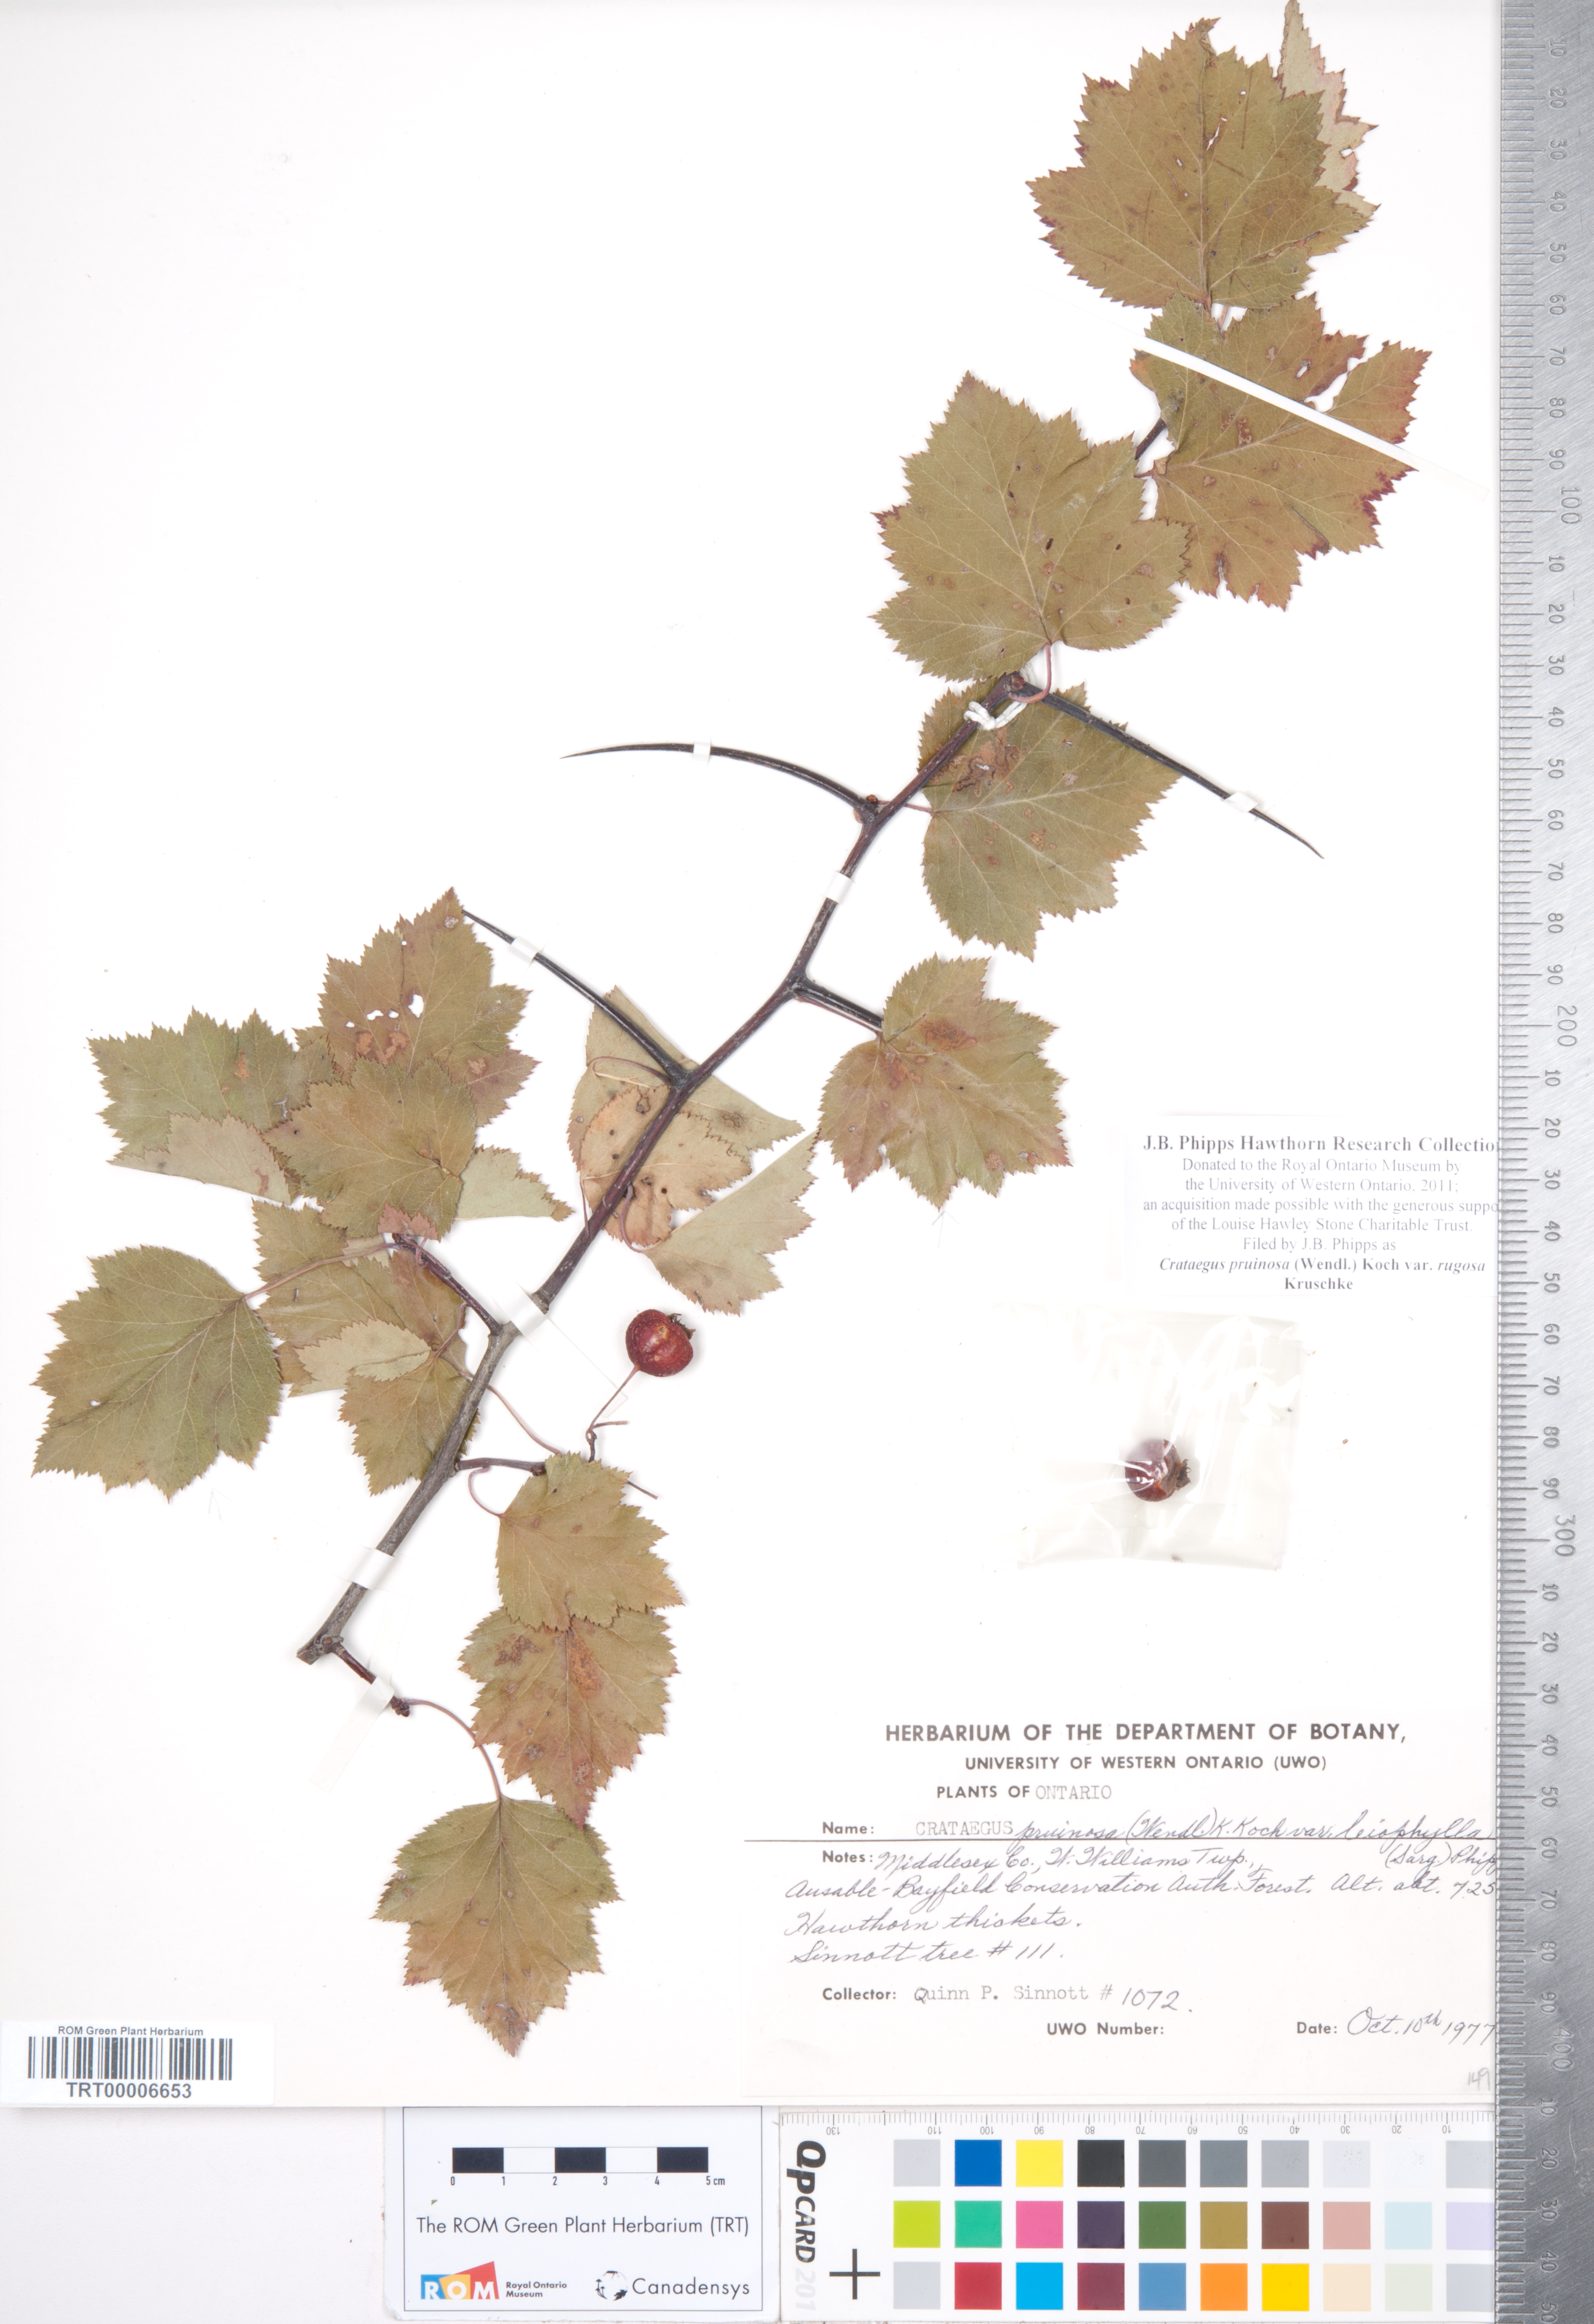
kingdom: Plantae
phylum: Tracheophyta
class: Magnoliopsida
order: Rosales
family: Rosaceae
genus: Crataegus
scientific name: Crataegus pruinosa
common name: Waxy-fruit hawthorn
